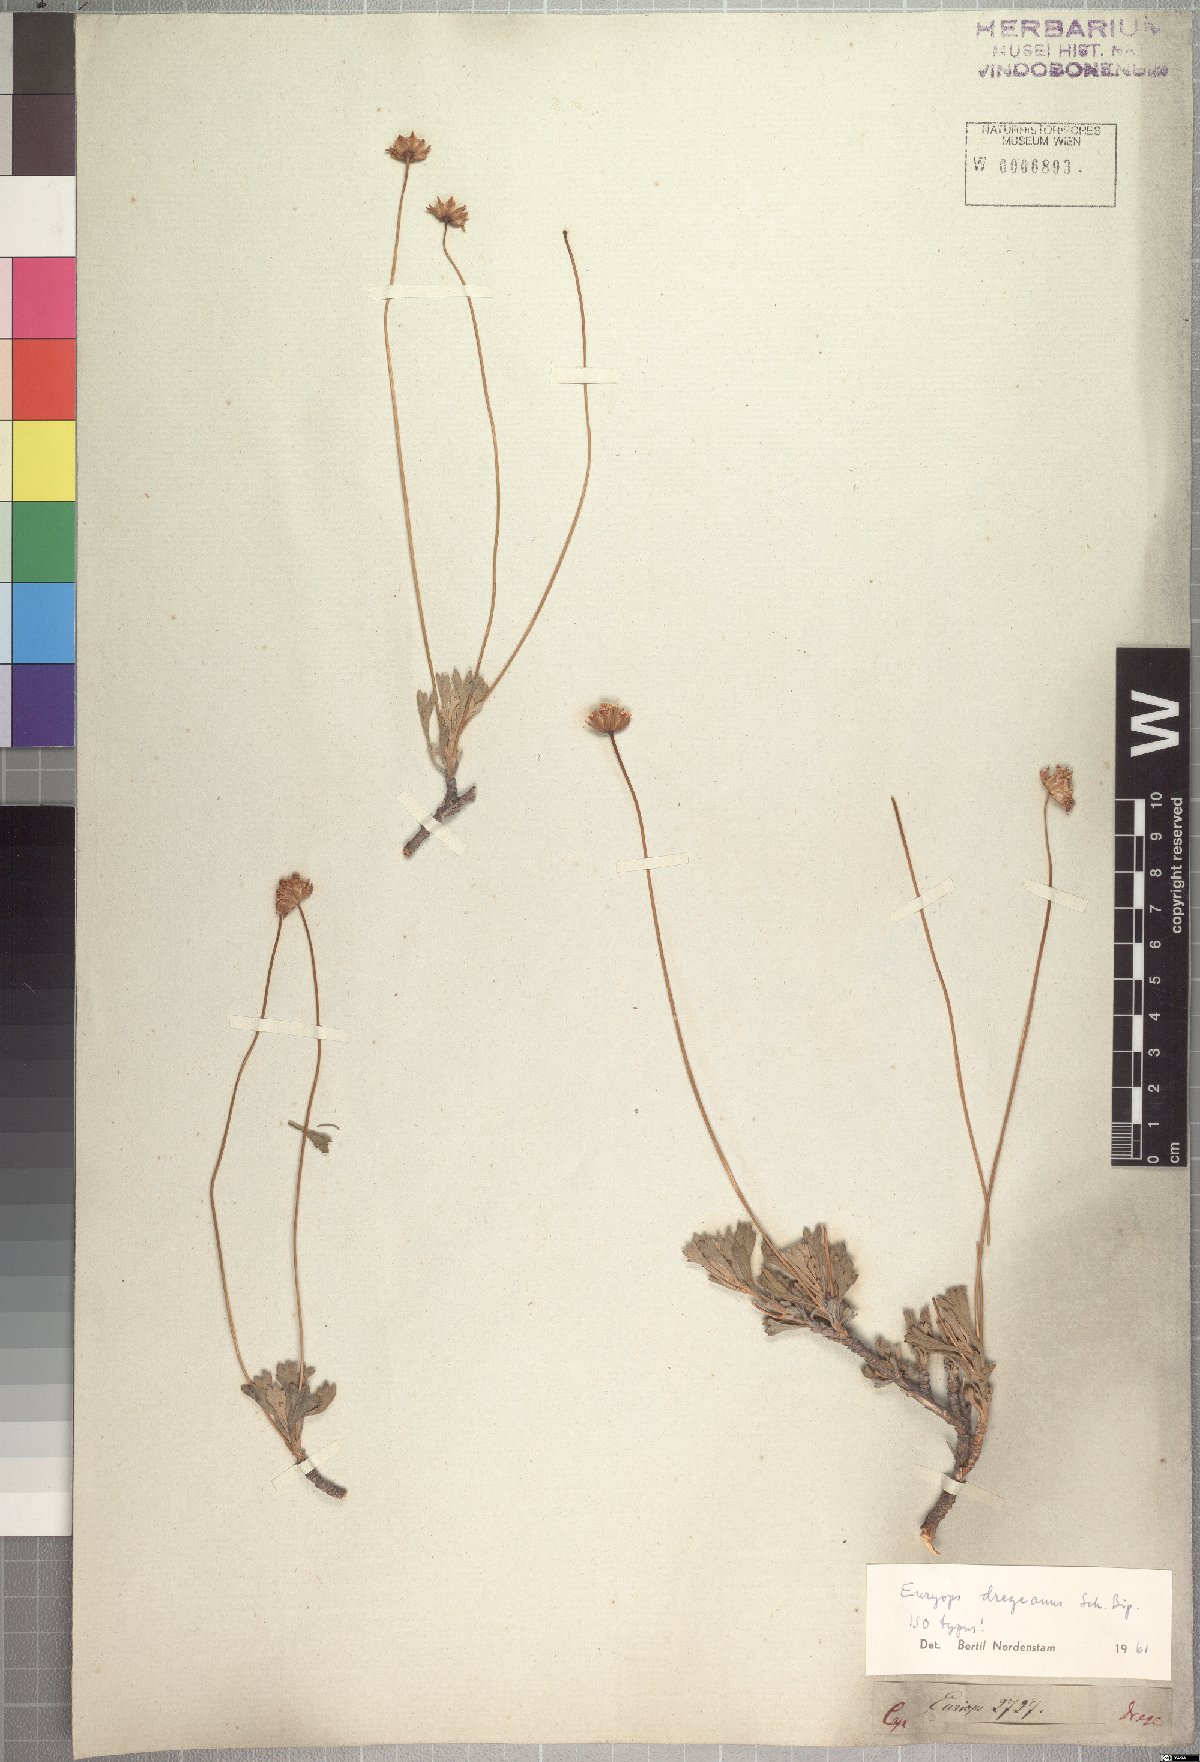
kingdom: Plantae
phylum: Tracheophyta
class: Magnoliopsida
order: Asterales
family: Asteraceae
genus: Euryops
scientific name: Euryops dregeanus
